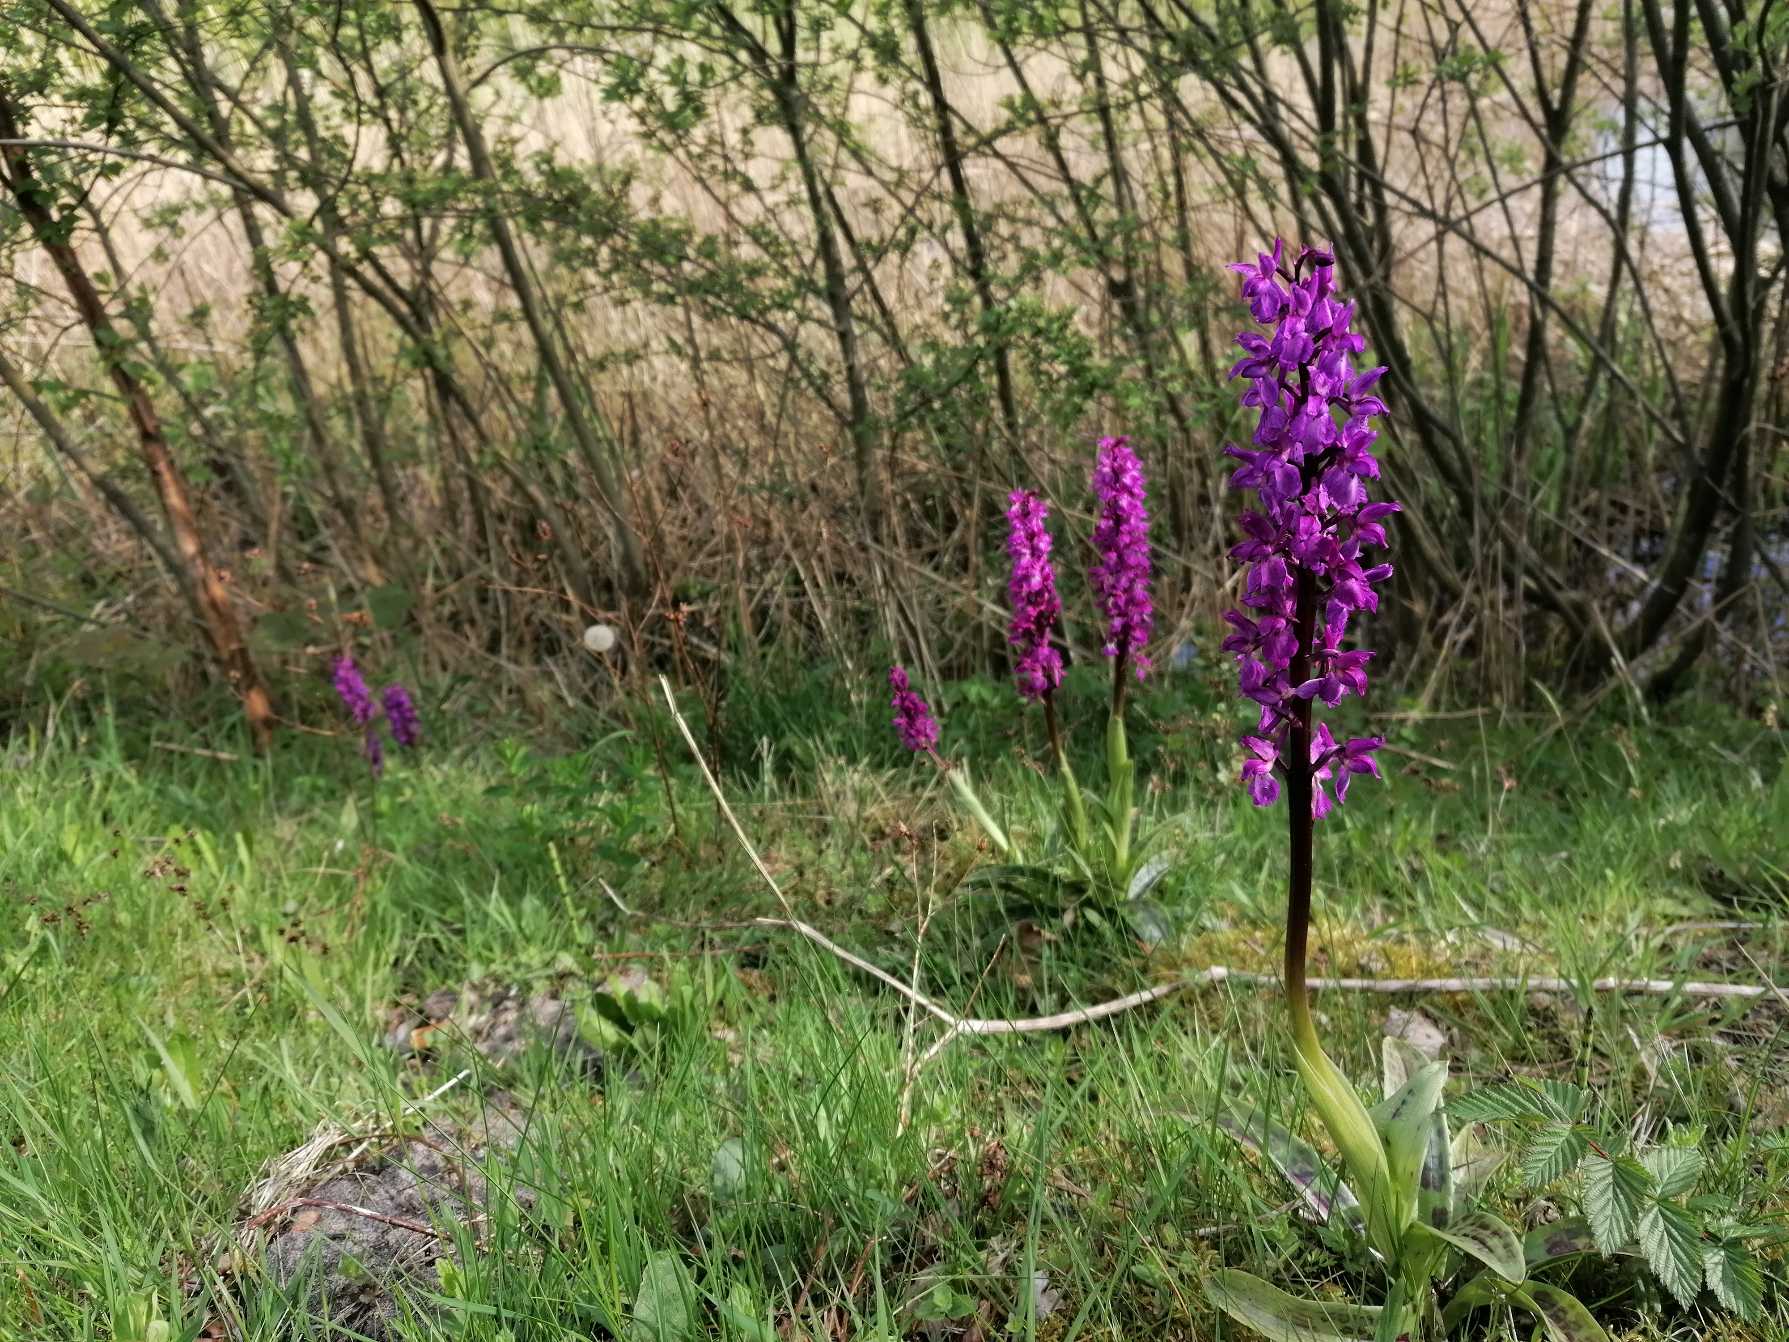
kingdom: Plantae
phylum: Tracheophyta
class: Liliopsida
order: Asparagales
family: Orchidaceae
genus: Orchis
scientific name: Orchis mascula
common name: Tyndakset gøgeurt
